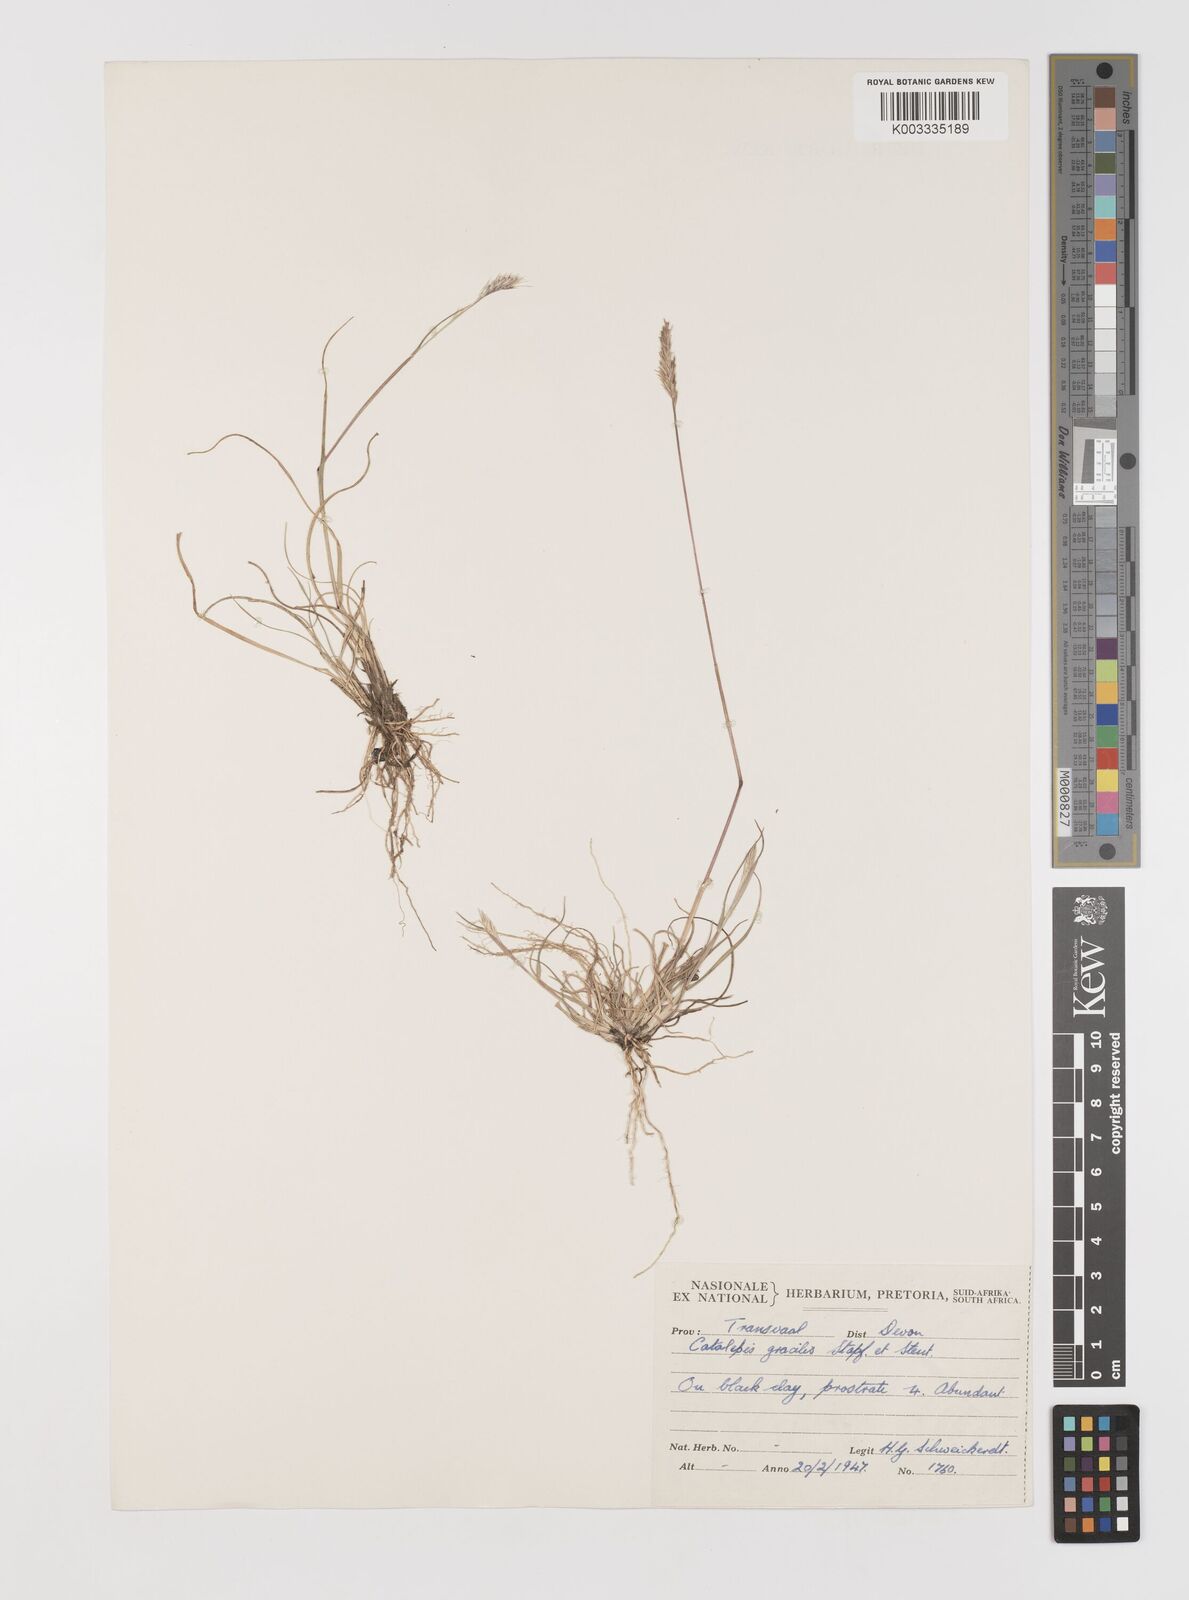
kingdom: Plantae
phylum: Tracheophyta
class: Liliopsida
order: Poales
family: Poaceae
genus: Catalepis
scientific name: Catalepis gracilis
